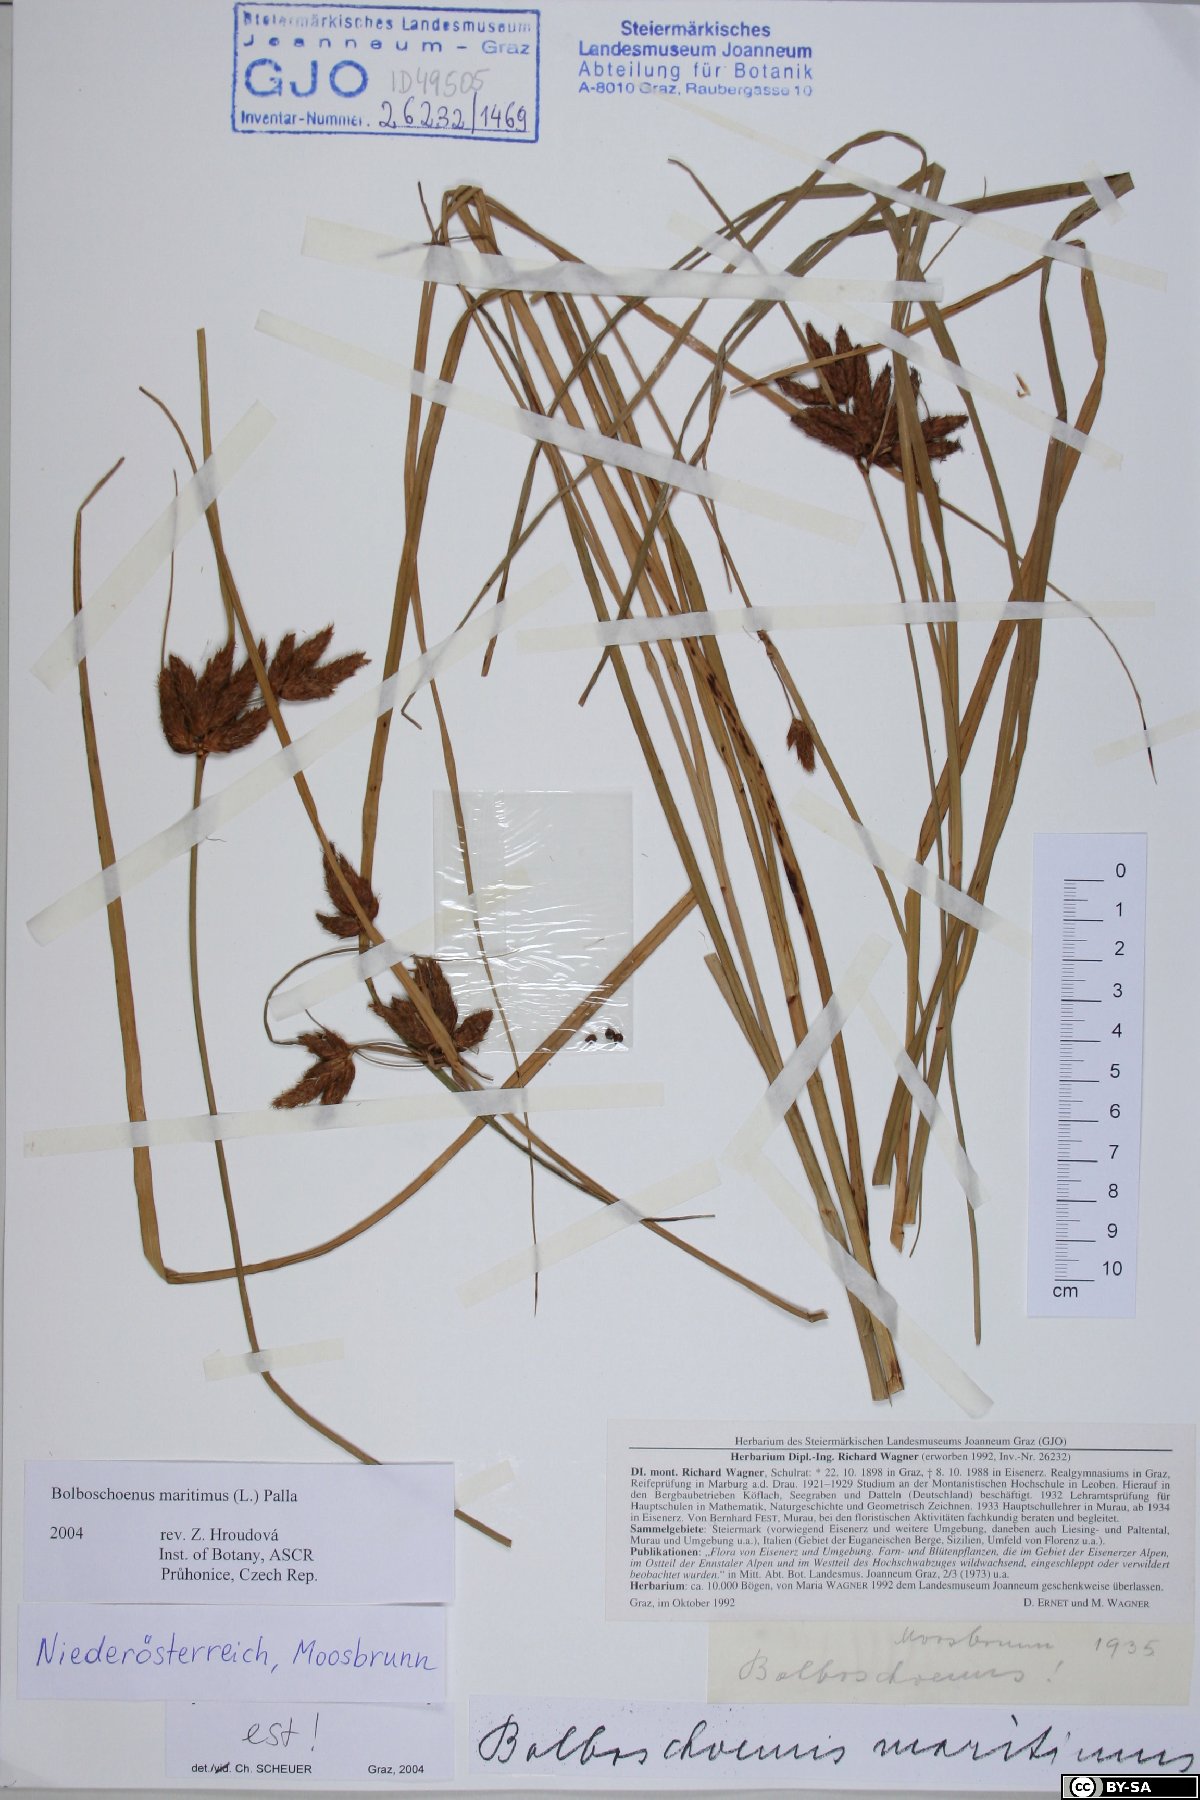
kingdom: Plantae
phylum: Tracheophyta
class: Liliopsida
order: Poales
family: Cyperaceae
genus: Bolboschoenus
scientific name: Bolboschoenus maritimus
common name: Sea club-rush
